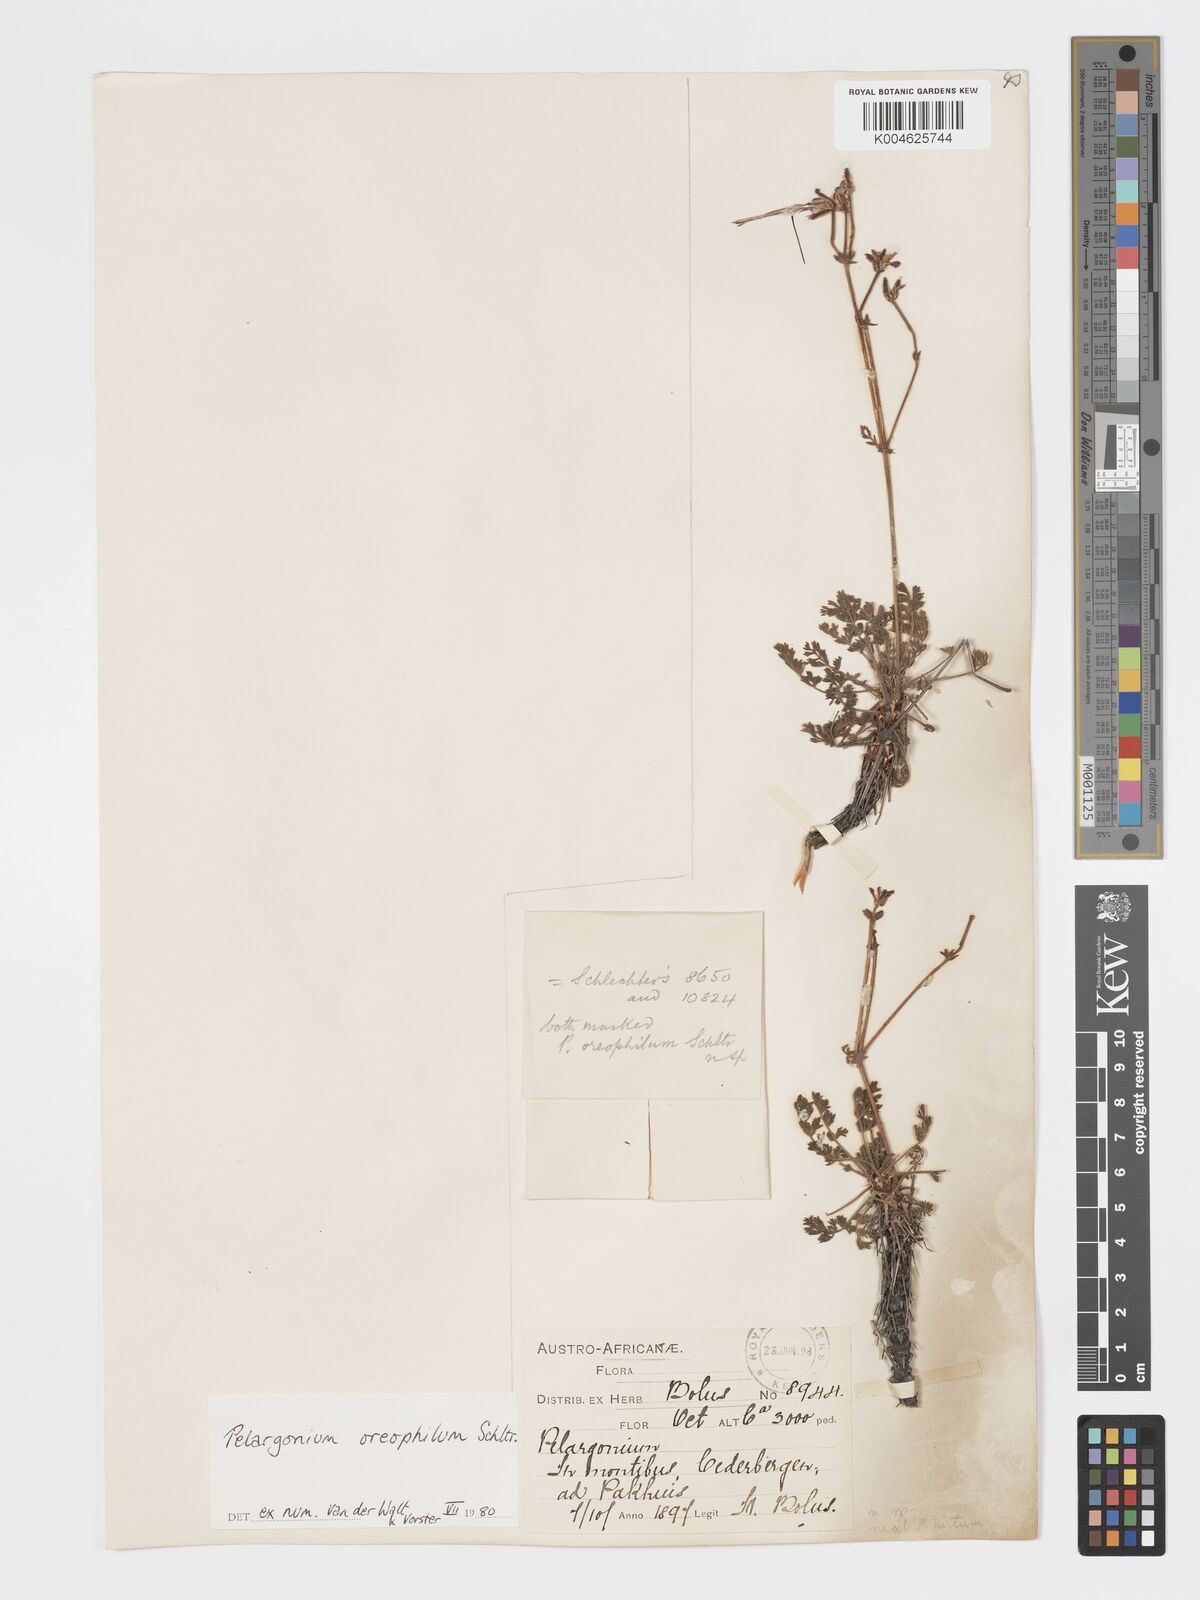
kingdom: Plantae
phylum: Tracheophyta
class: Magnoliopsida
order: Geraniales
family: Geraniaceae
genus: Pelargonium
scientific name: Pelargonium oreophilum
